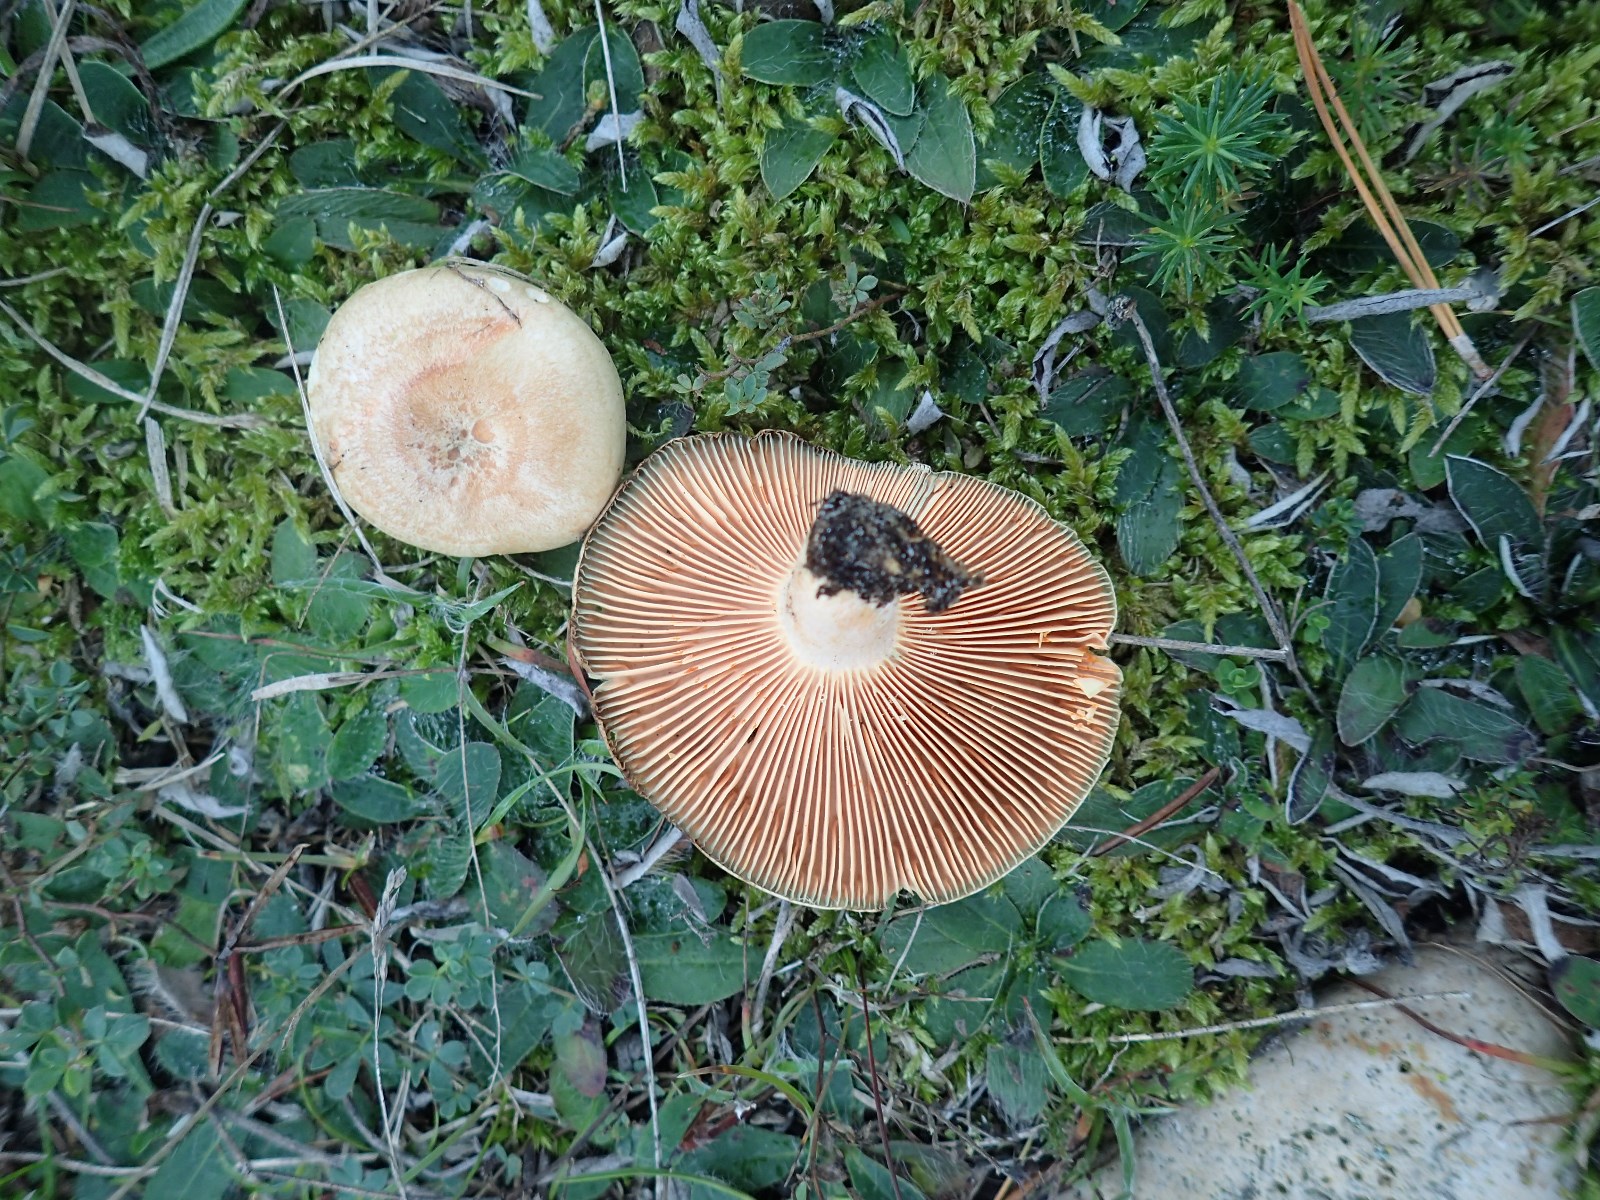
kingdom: Fungi
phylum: Basidiomycota
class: Agaricomycetes
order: Russulales
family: Russulaceae
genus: Lactarius
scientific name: Lactarius quieticolor
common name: tvefarvet mælkehat
